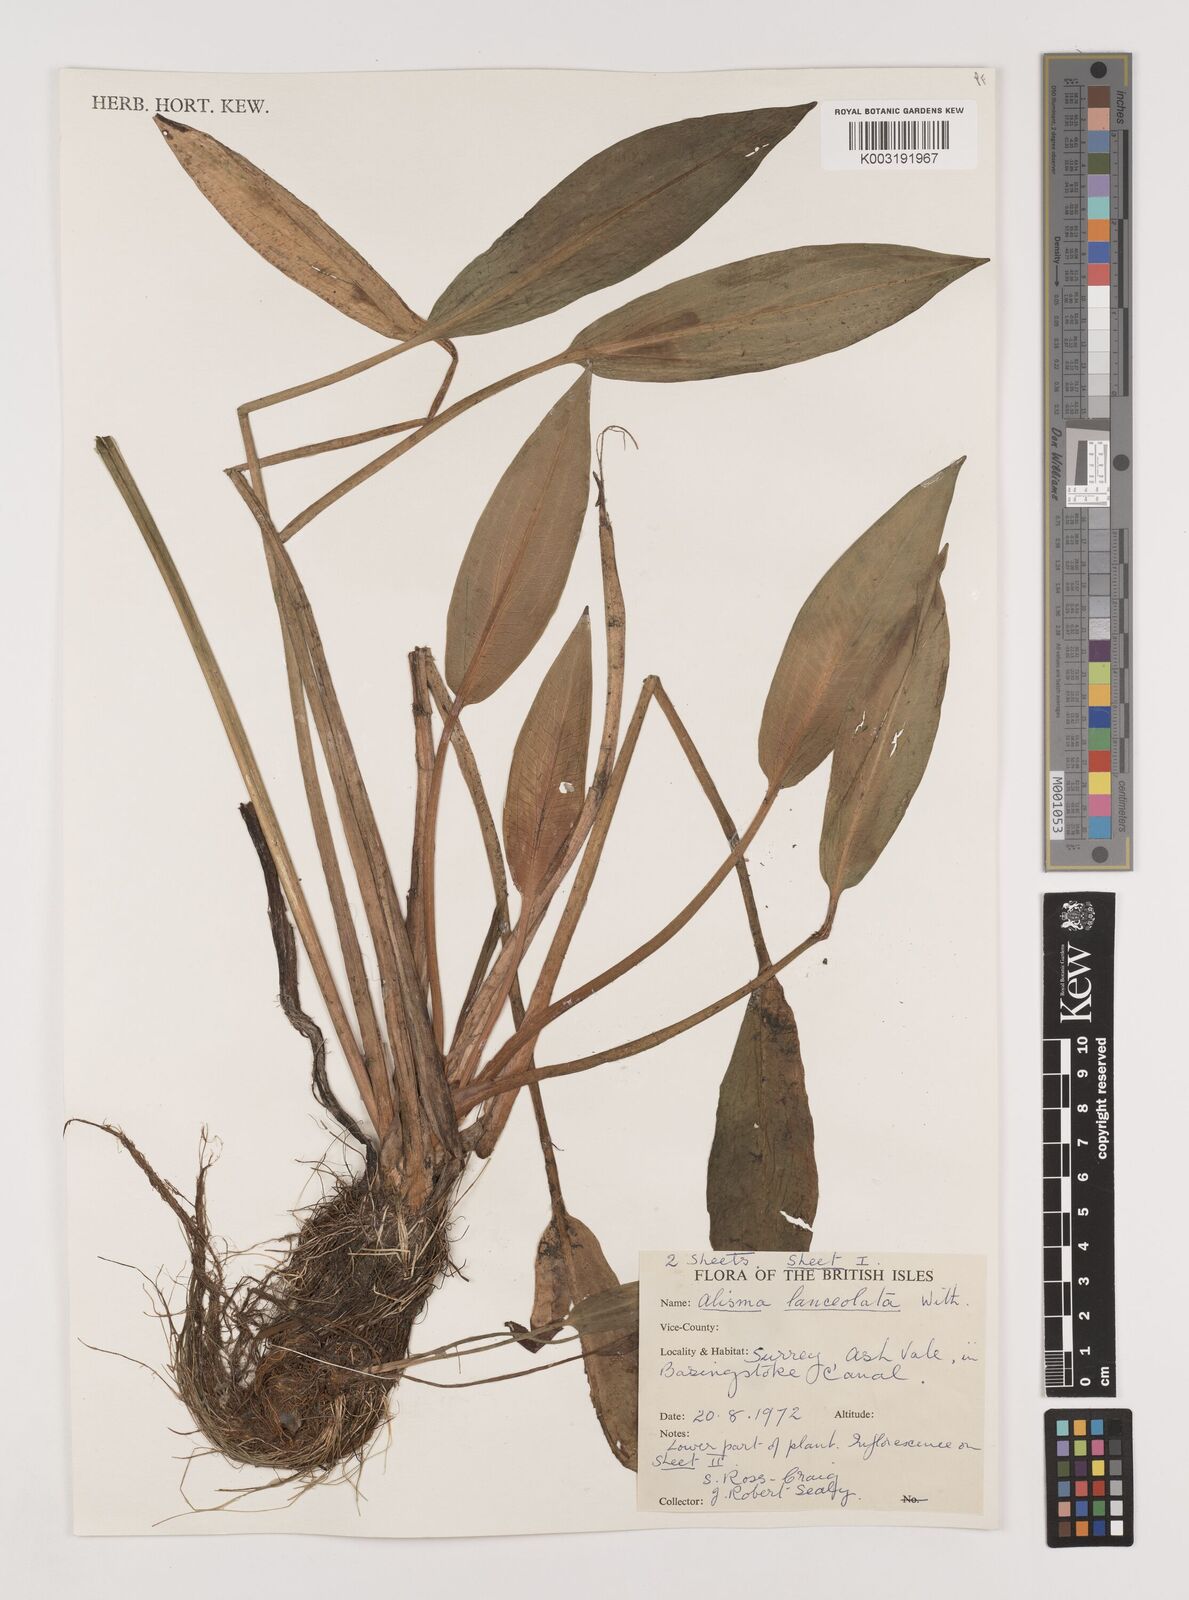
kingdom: Plantae
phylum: Tracheophyta
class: Liliopsida
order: Alismatales
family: Alismataceae
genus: Alisma
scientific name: Alisma lanceolatum
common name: Narrow-leaved water-plantain
